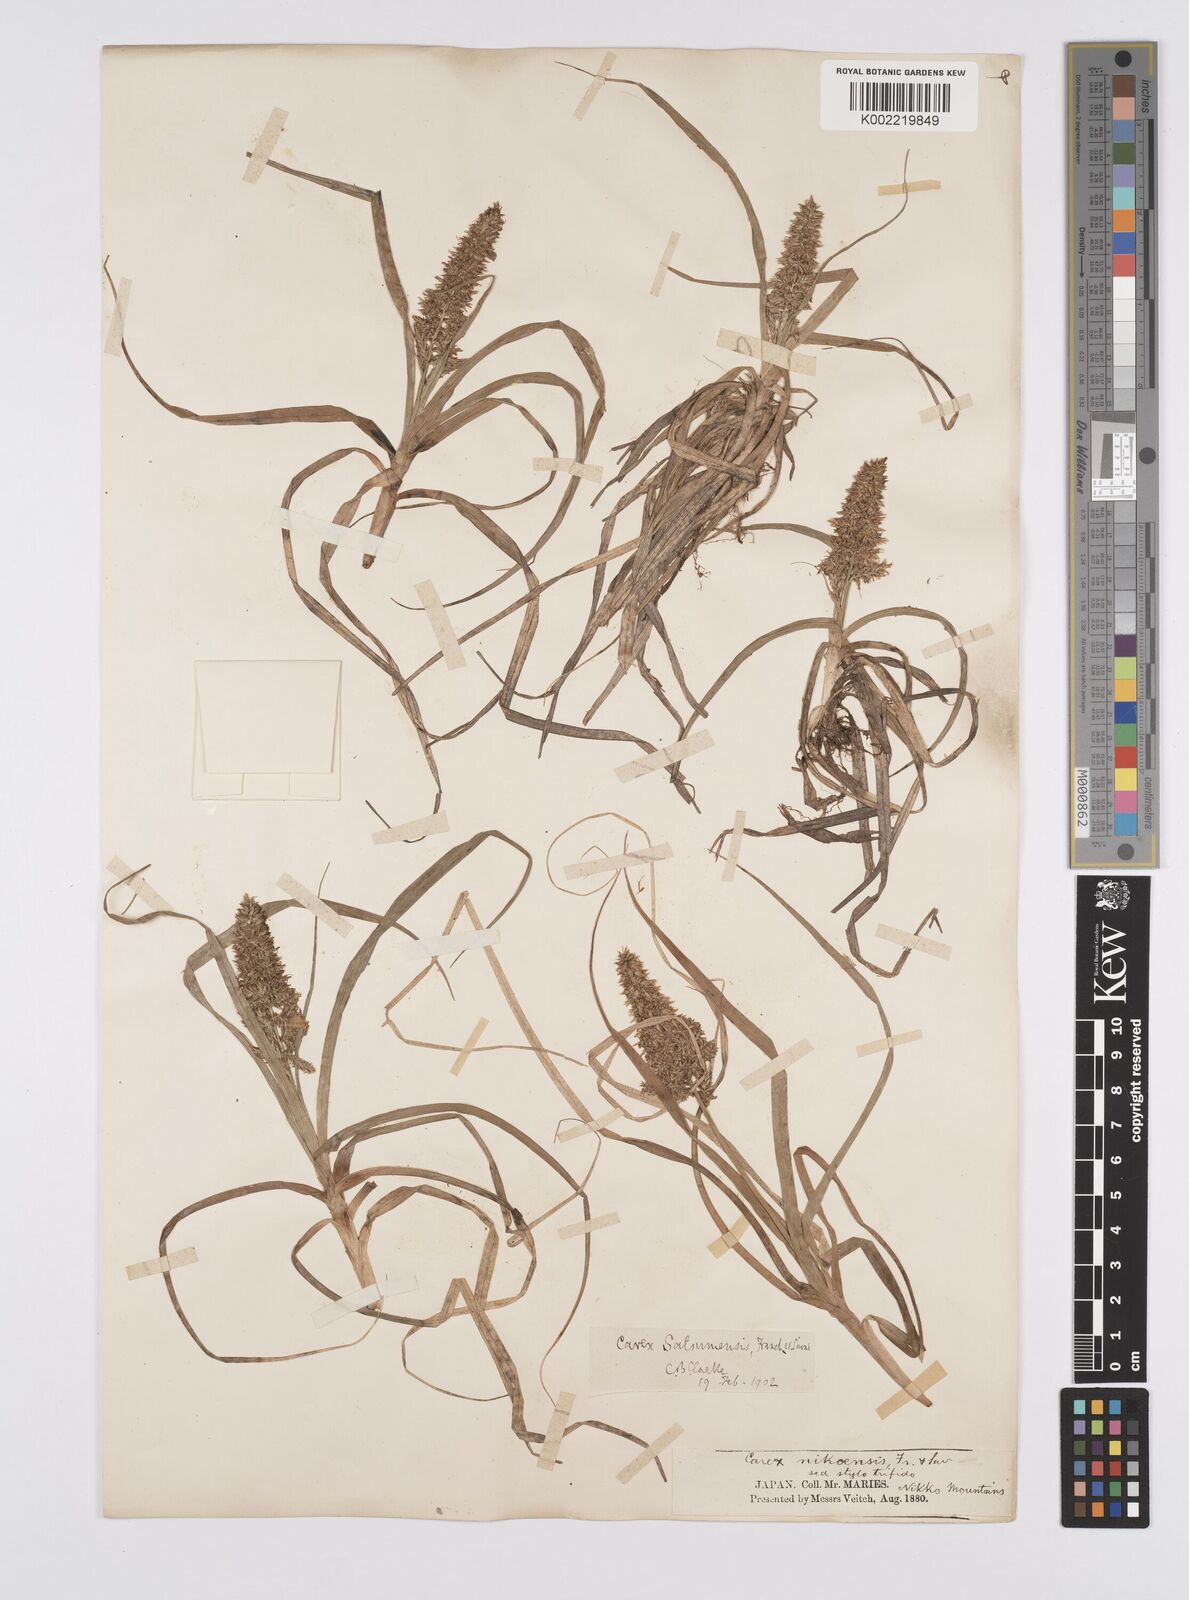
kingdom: Plantae
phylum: Tracheophyta
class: Liliopsida
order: Poales
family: Cyperaceae
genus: Carex
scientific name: Carex satsumensis
